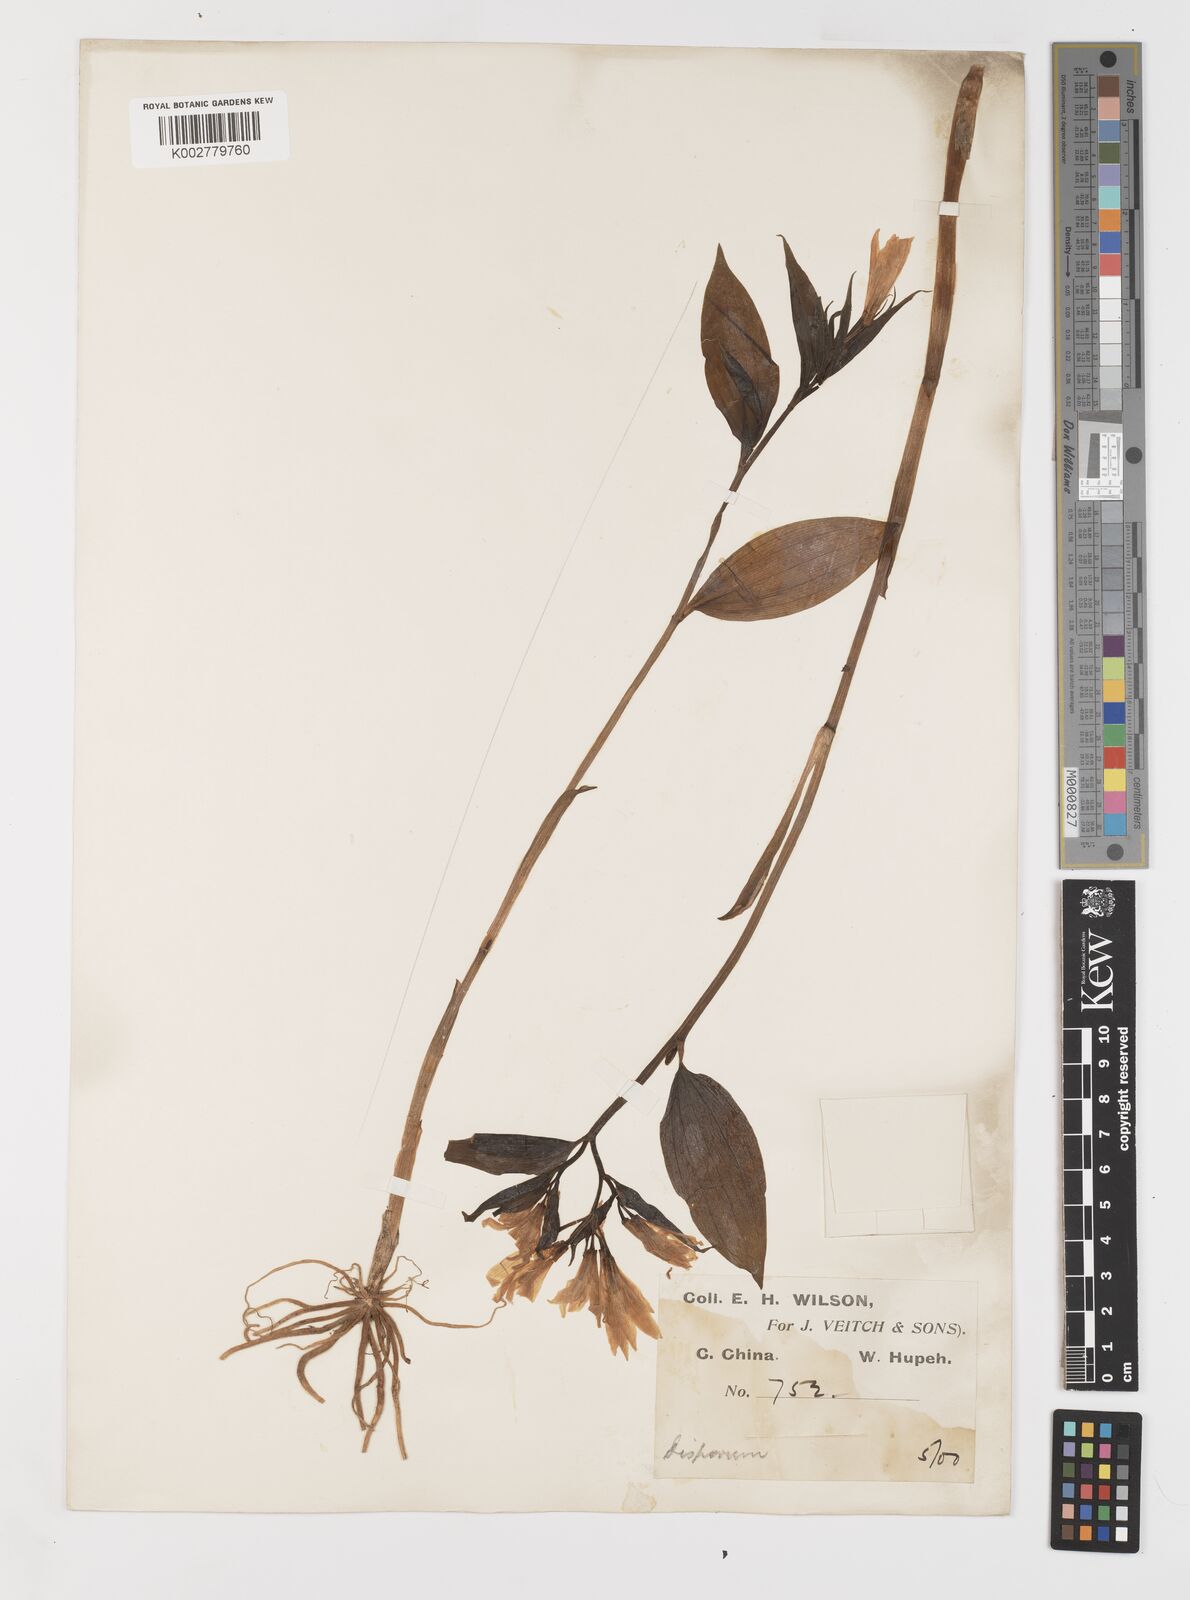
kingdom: Plantae
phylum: Tracheophyta
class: Liliopsida
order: Liliales
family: Colchicaceae
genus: Disporum
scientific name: Disporum sessile
